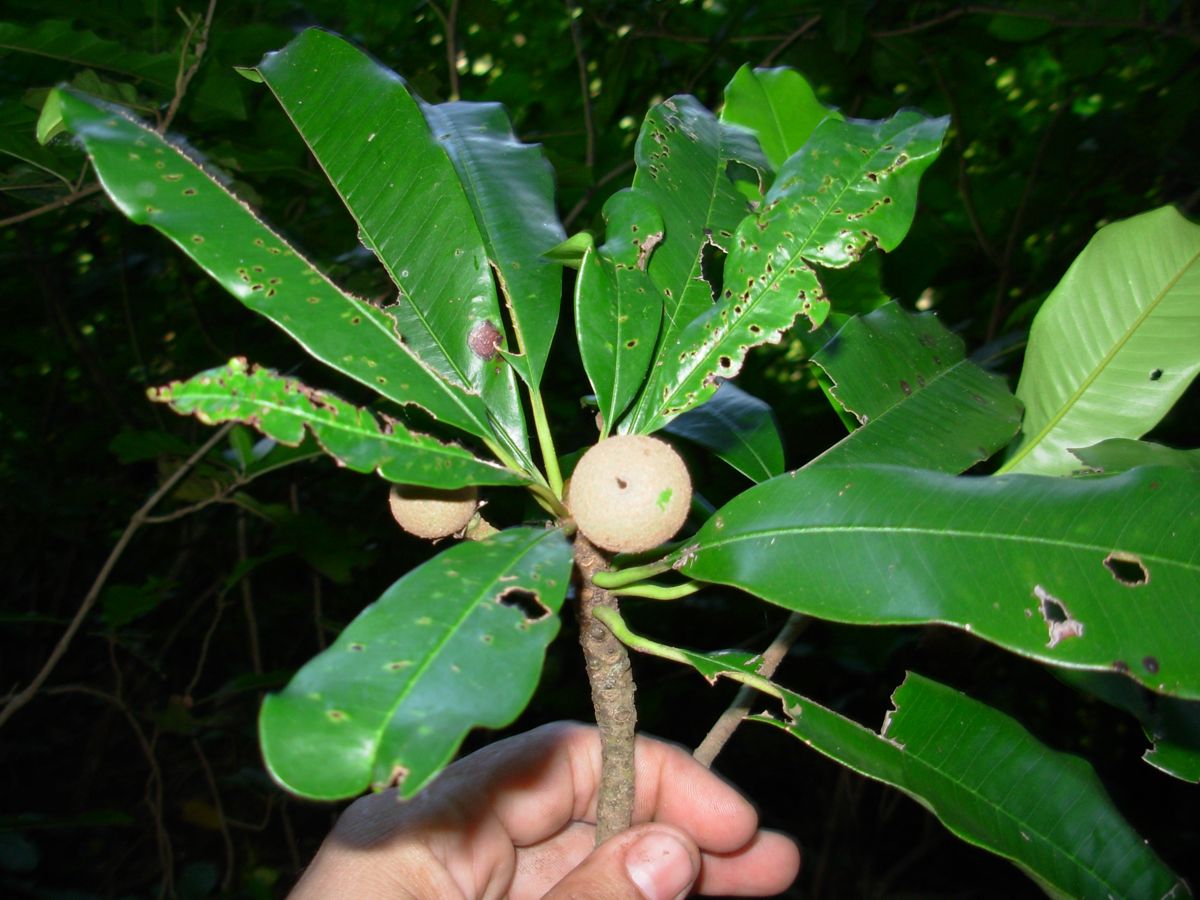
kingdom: Plantae
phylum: Tracheophyta
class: Magnoliopsida
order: Ericales
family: Sapotaceae
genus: Manilkara
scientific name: Manilkara chicle
